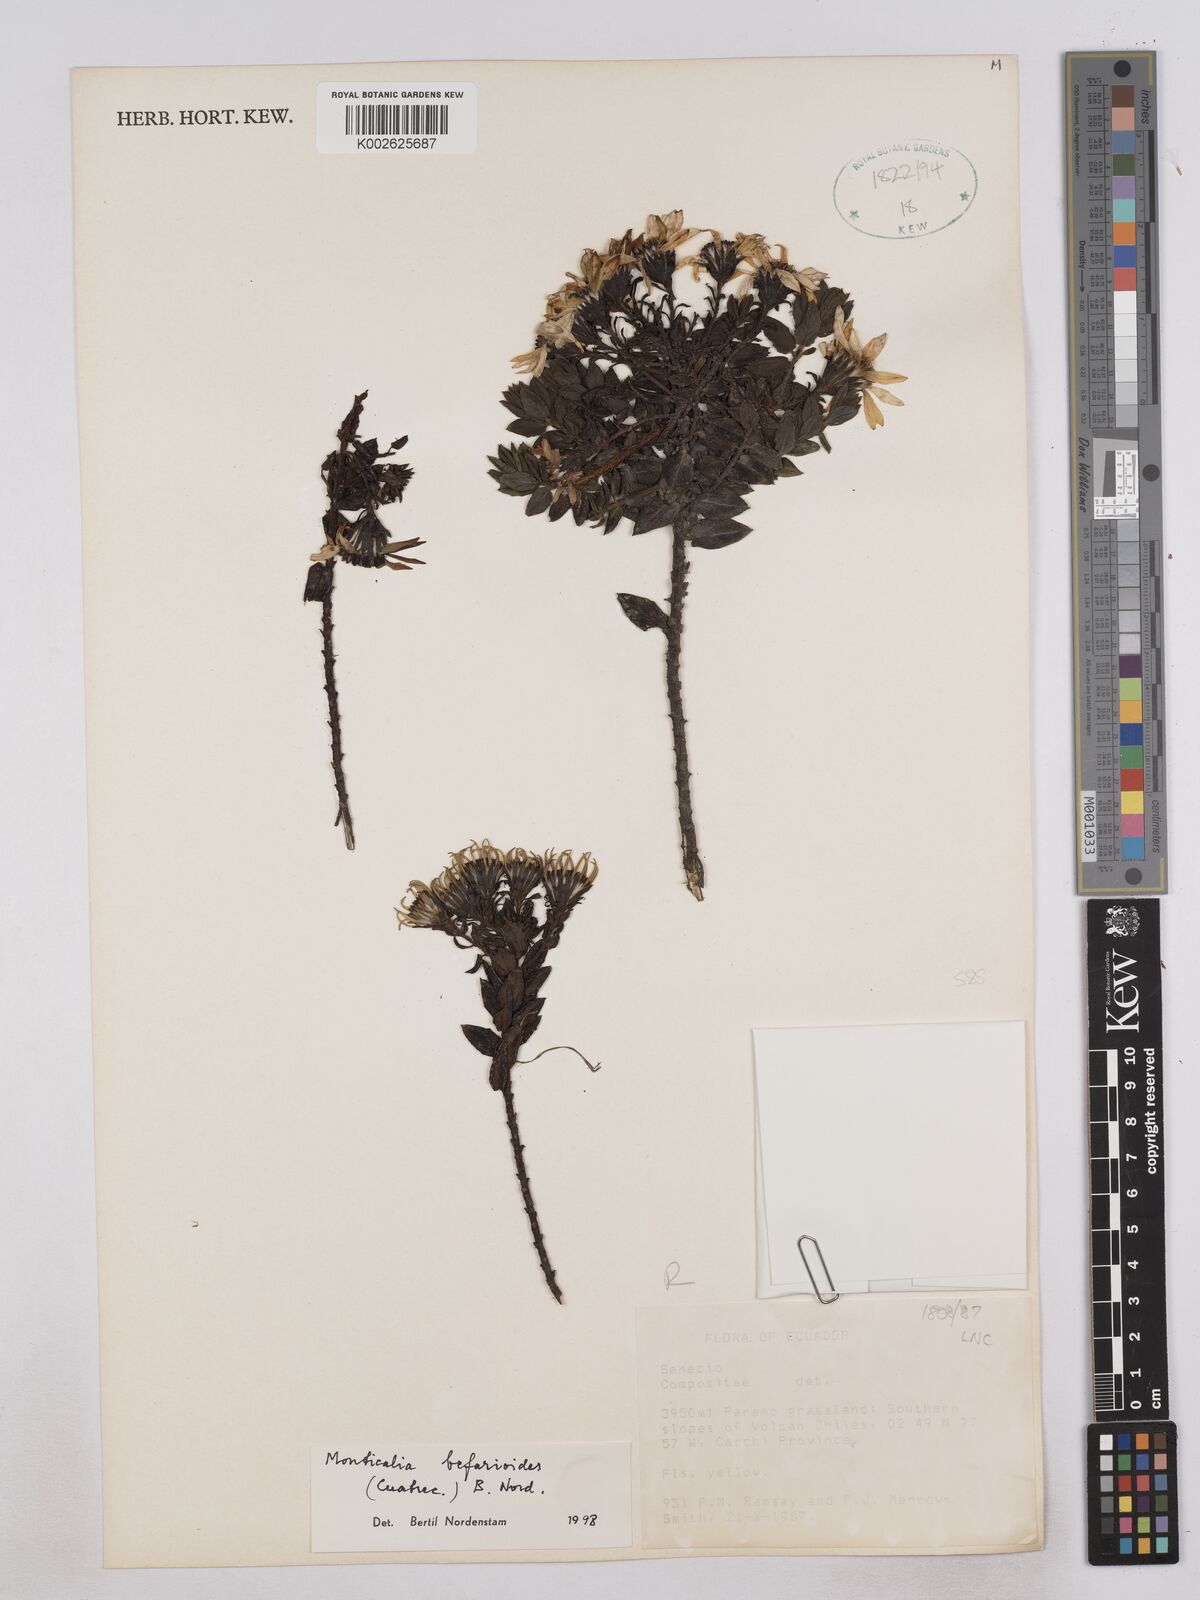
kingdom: Plantae
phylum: Tracheophyta
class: Magnoliopsida
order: Asterales
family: Asteraceae
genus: Monticalia
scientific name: Monticalia befarioides
